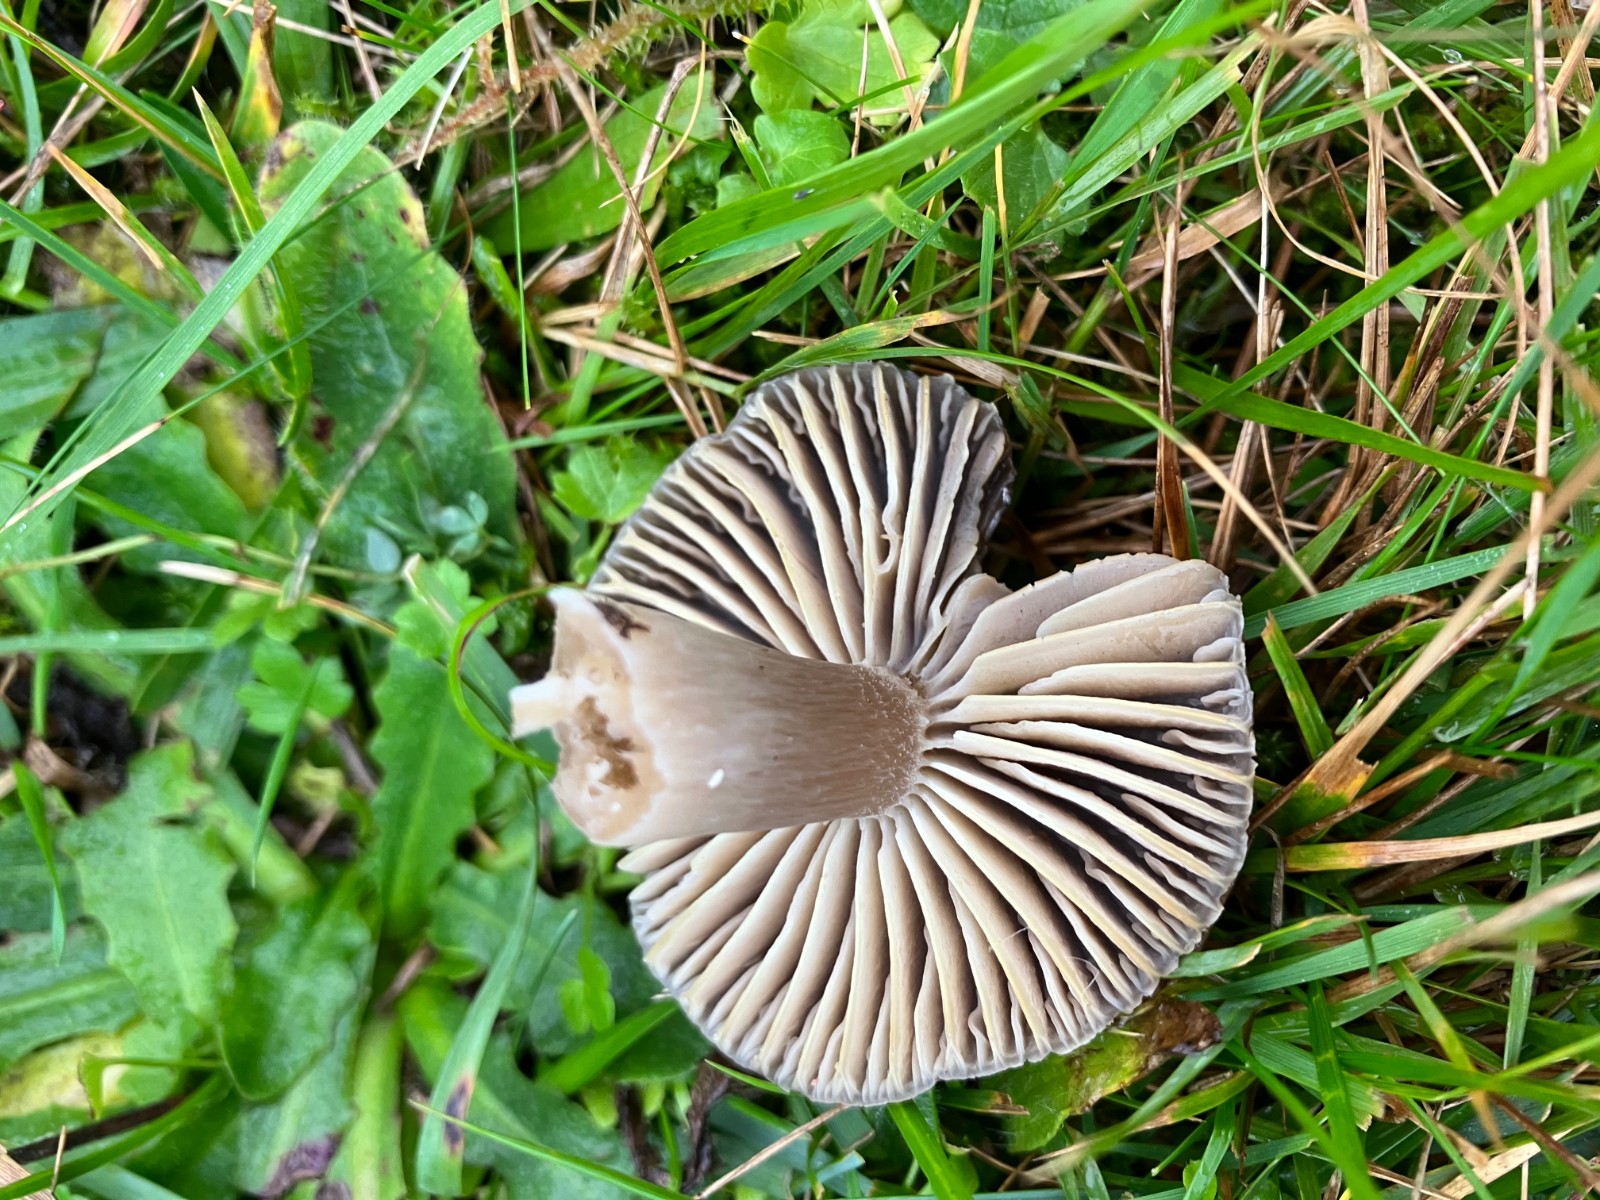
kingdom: Fungi
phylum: Basidiomycota
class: Agaricomycetes
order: Agaricales
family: Hygrophoraceae
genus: Neohygrocybe
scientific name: Neohygrocybe nitrata
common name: stinkende vokshat
